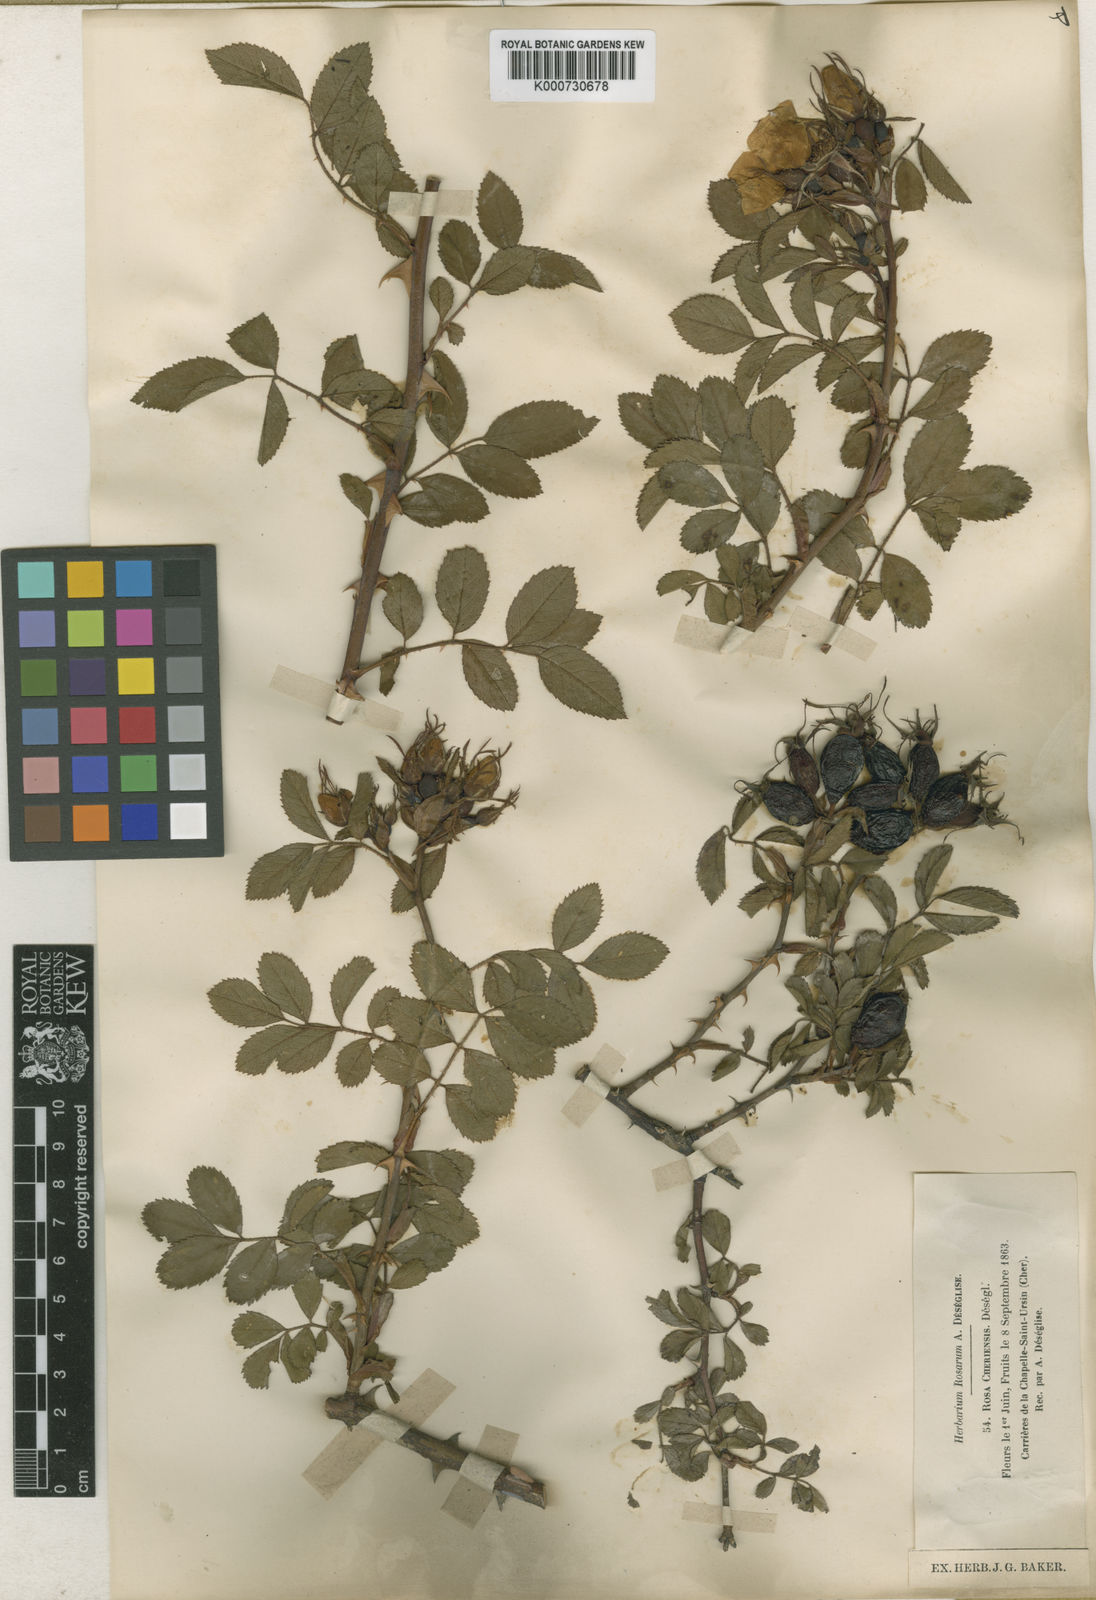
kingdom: Plantae
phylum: Tracheophyta
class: Magnoliopsida
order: Rosales
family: Rosaceae
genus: Rosa
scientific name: Rosa agrestis
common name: Fieldbriar
